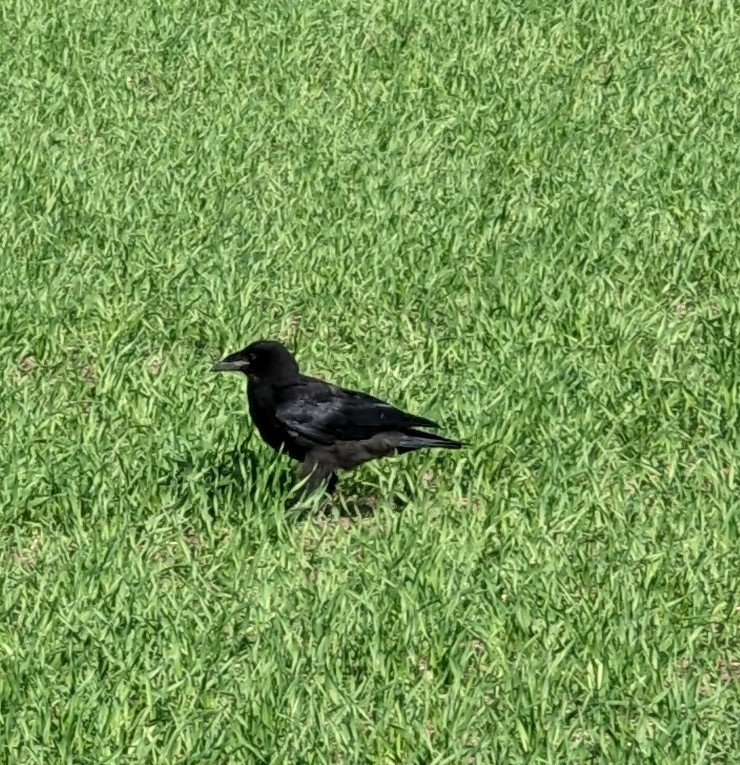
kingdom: Animalia
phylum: Chordata
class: Aves
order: Passeriformes
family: Corvidae
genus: Corvus
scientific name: Corvus corone
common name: Sortkrage
